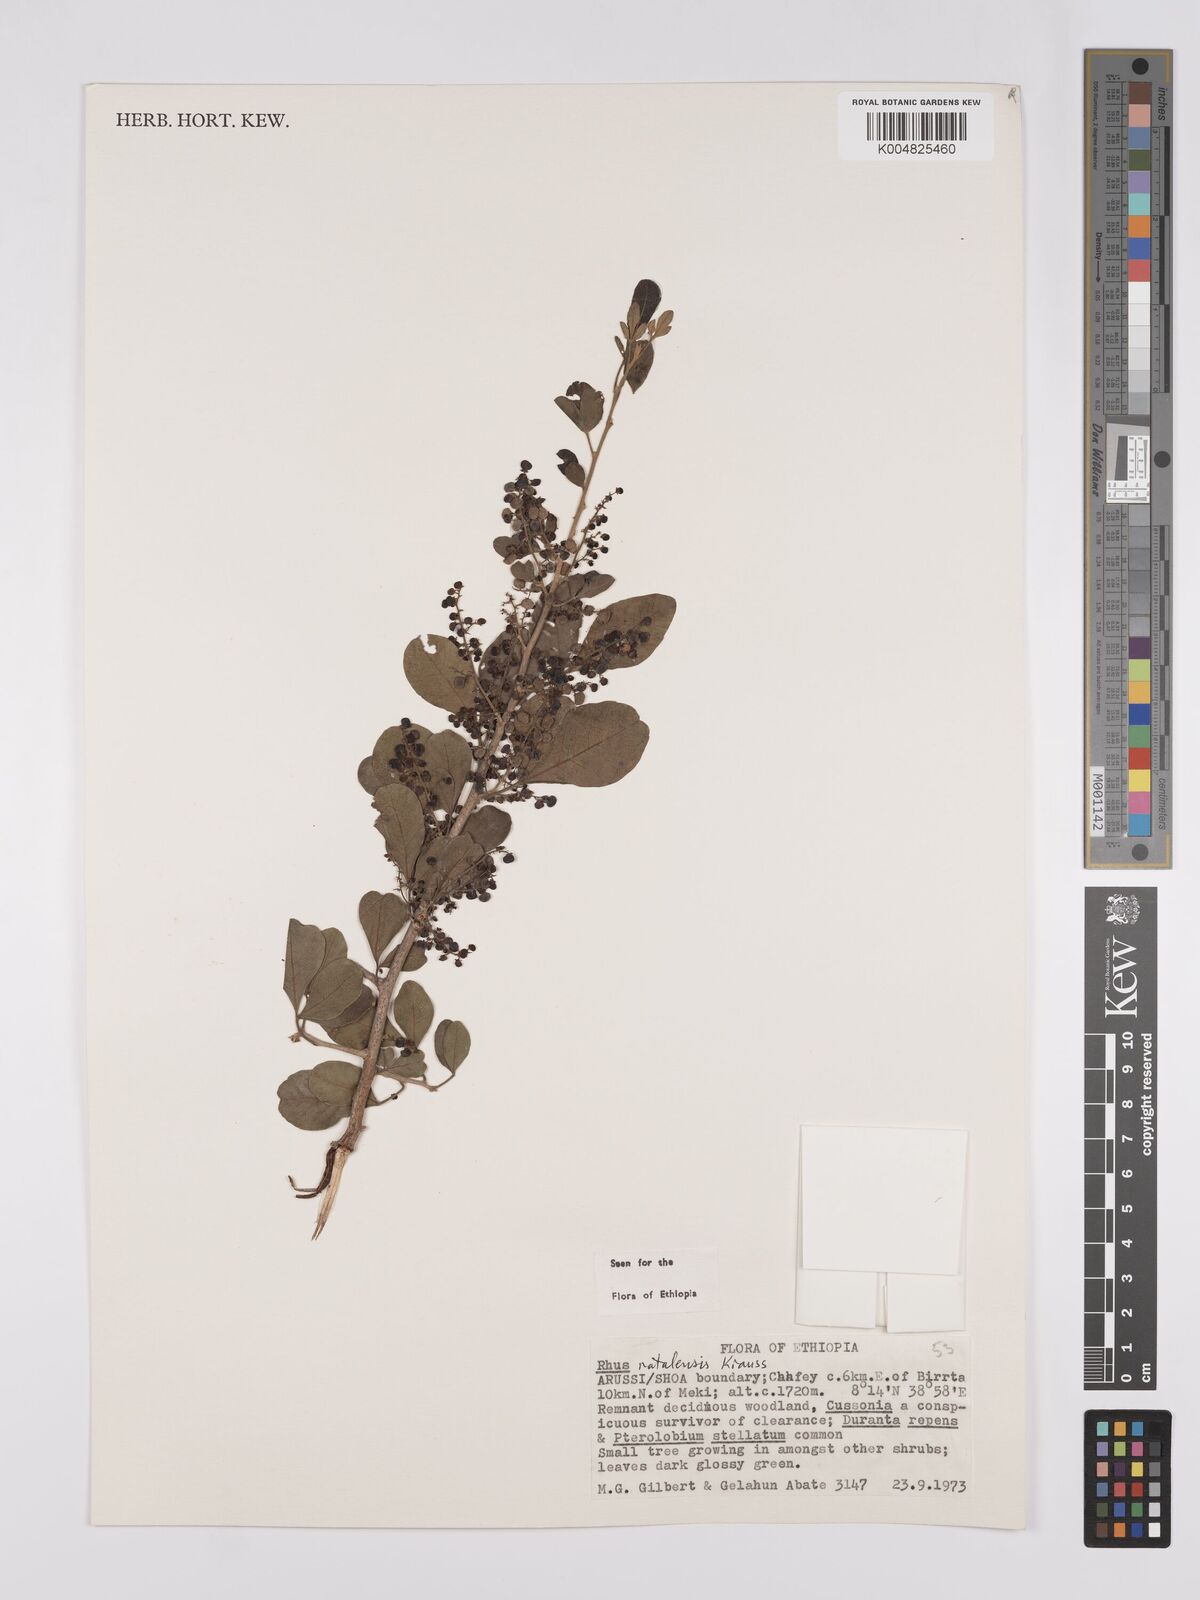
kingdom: Plantae
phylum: Tracheophyta
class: Magnoliopsida
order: Sapindales
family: Anacardiaceae
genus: Searsia
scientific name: Searsia natalensis
